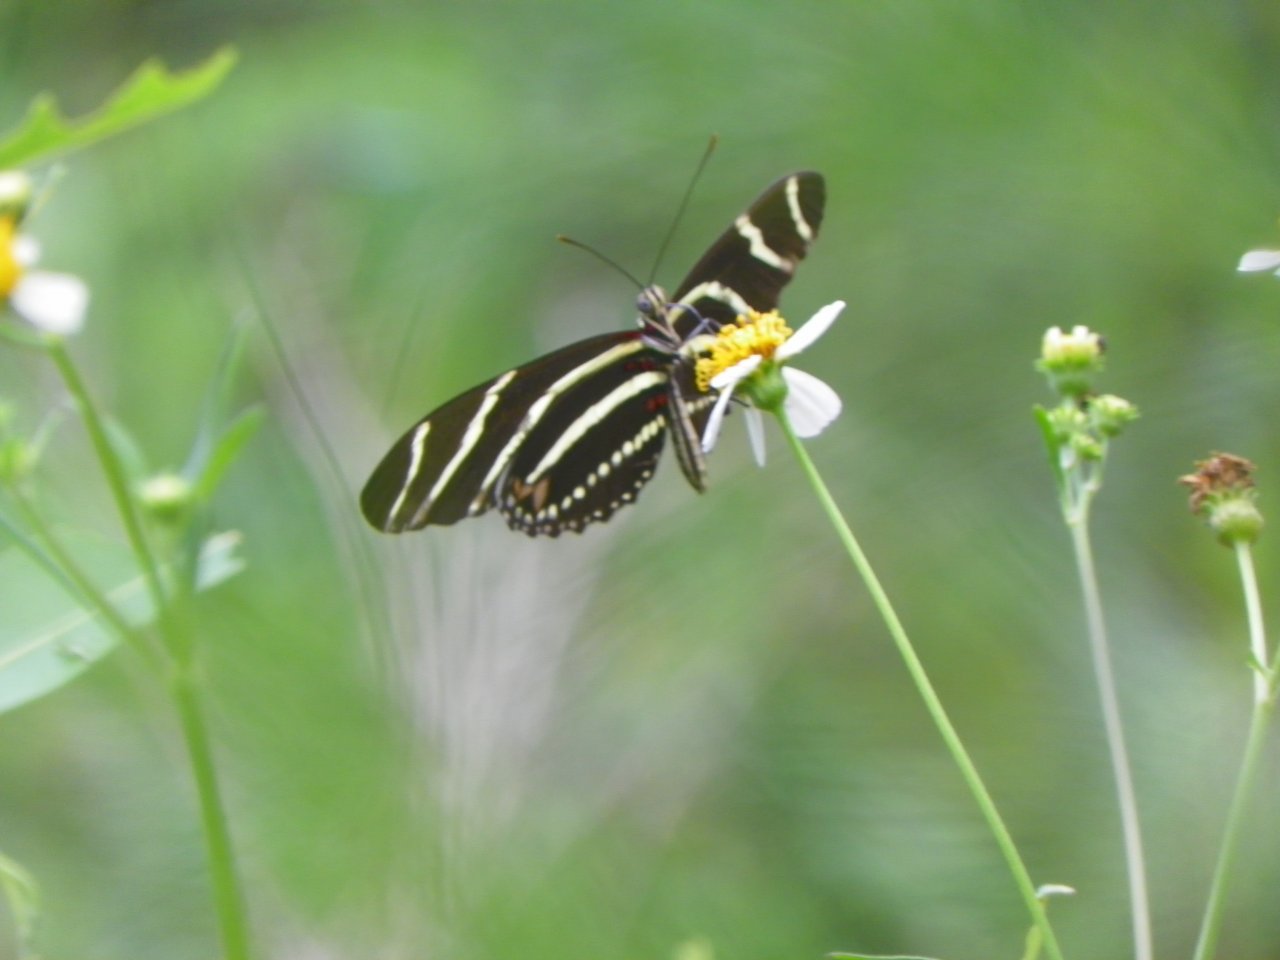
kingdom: Animalia
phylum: Arthropoda
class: Insecta
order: Lepidoptera
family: Nymphalidae
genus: Heliconius
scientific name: Heliconius charithonia
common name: Zebra Longwing
